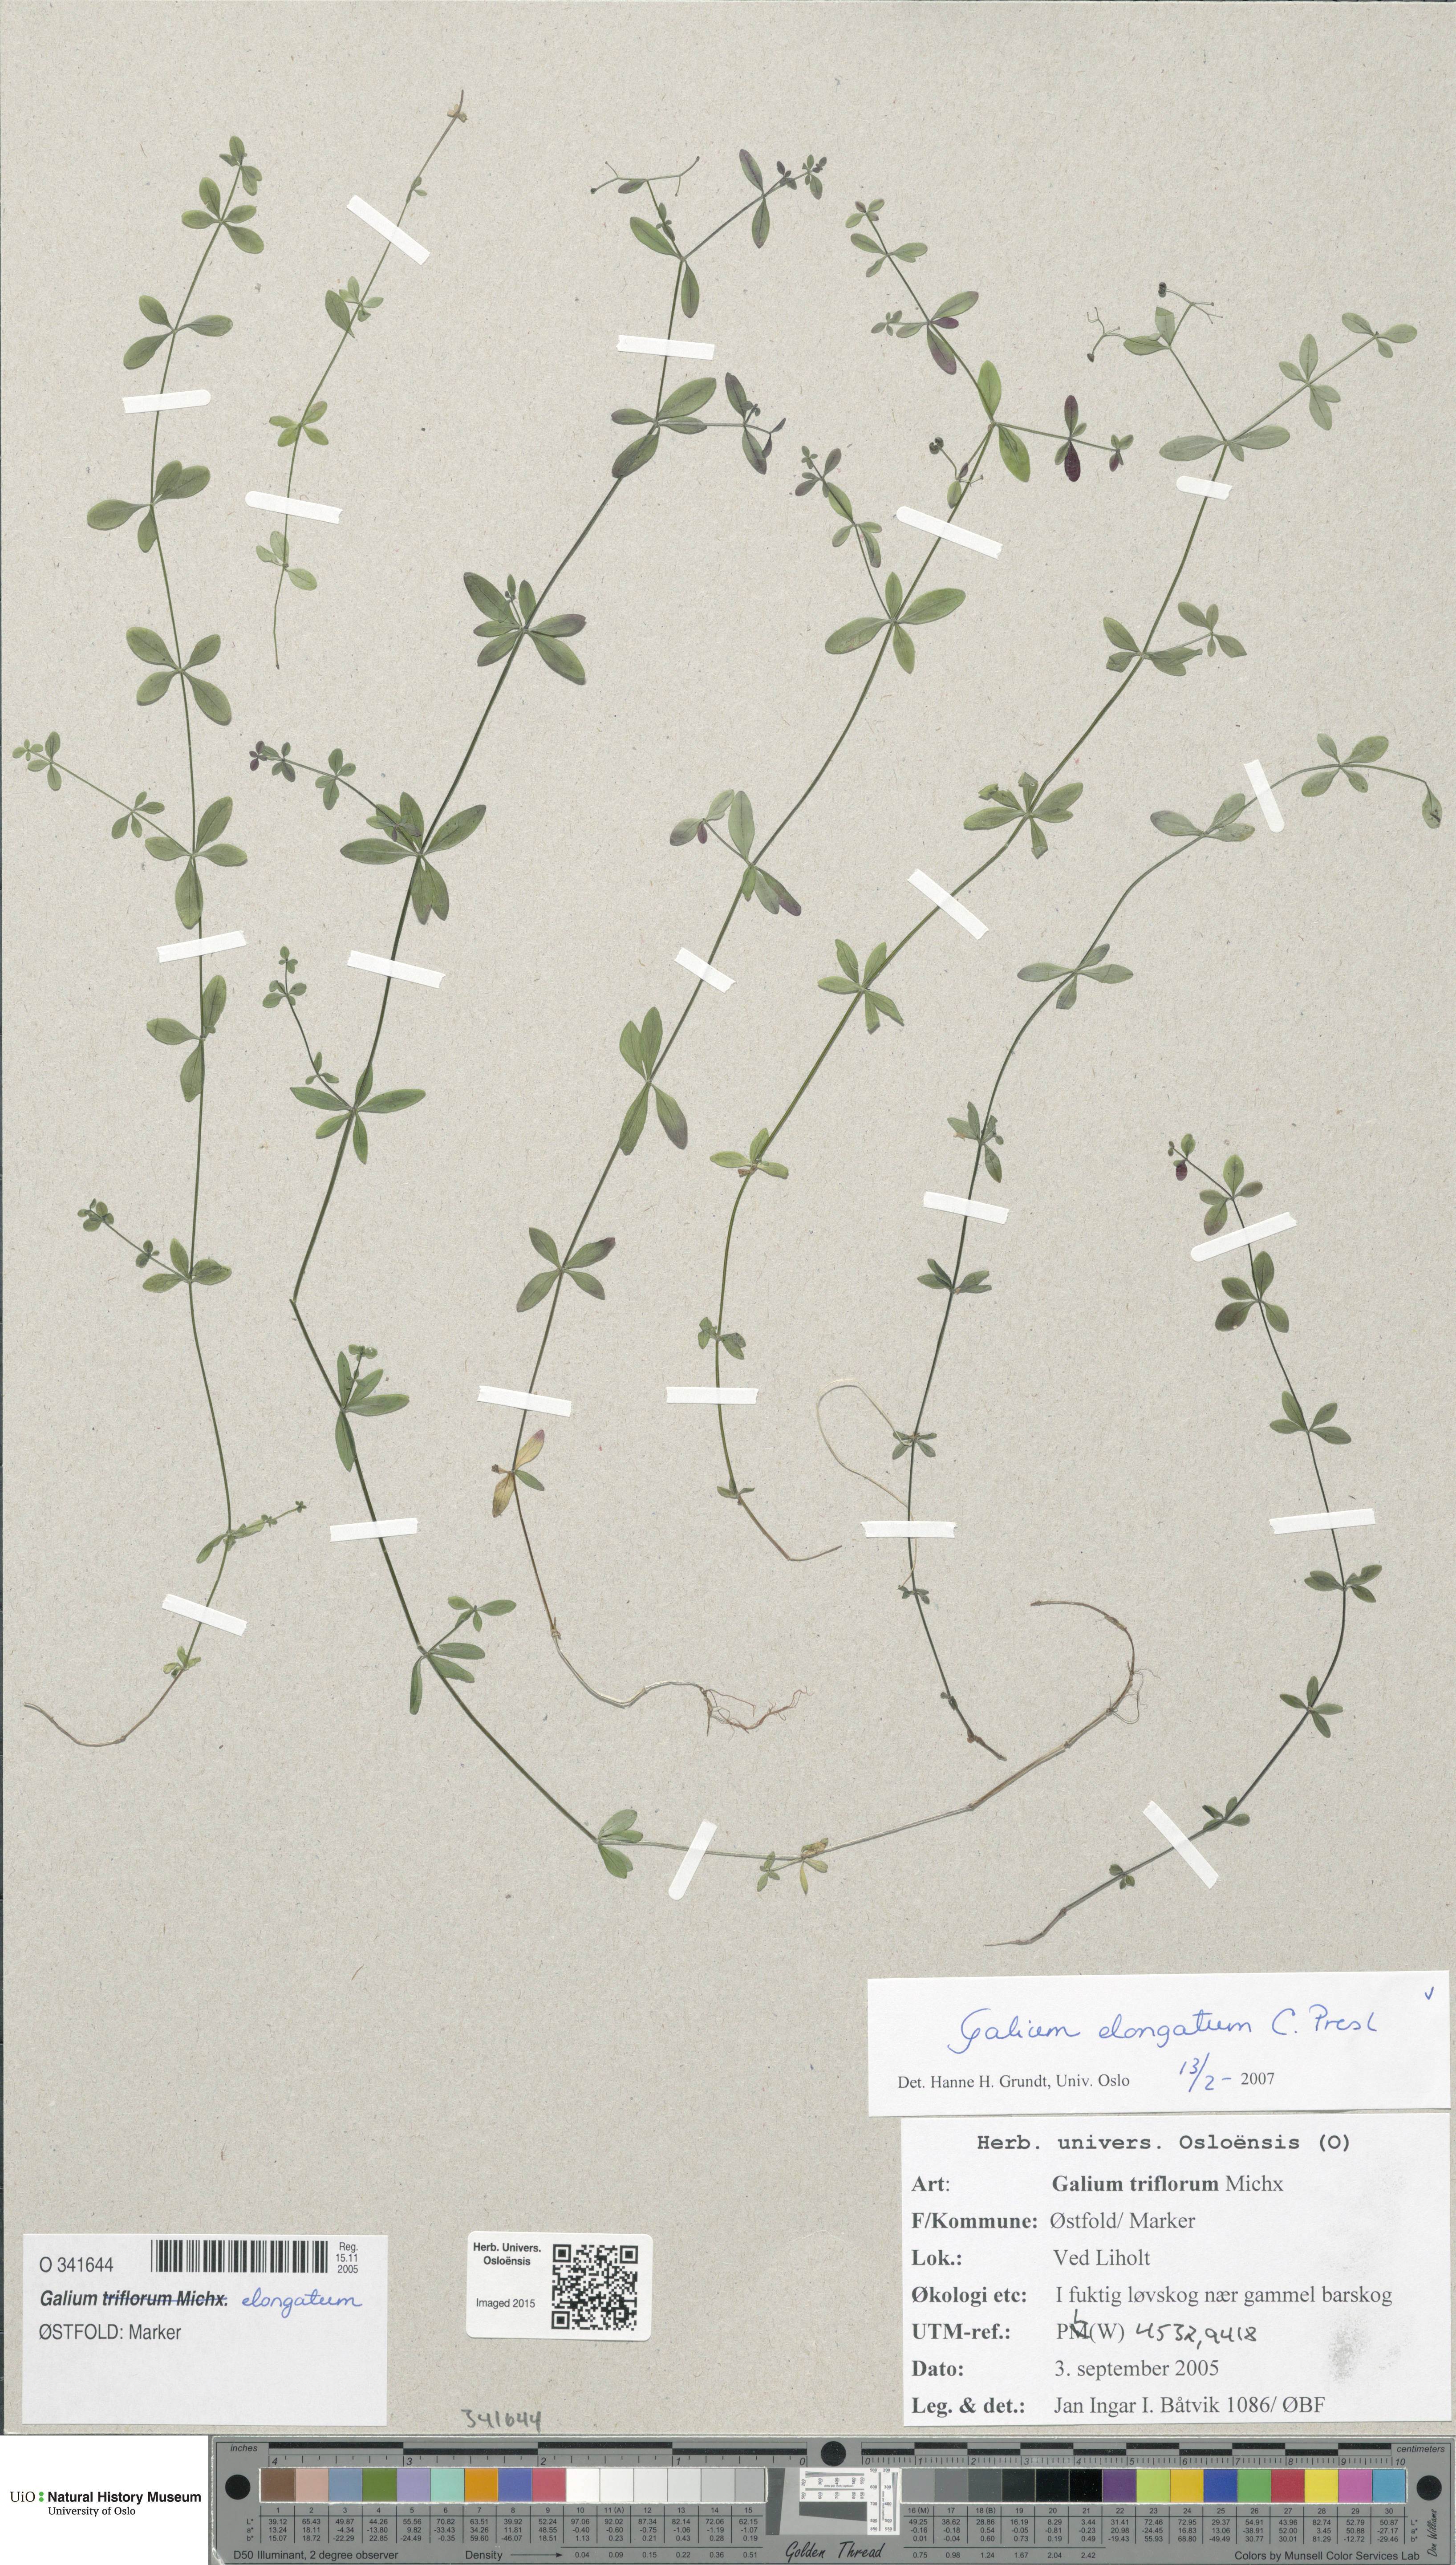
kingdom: Plantae
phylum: Tracheophyta
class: Magnoliopsida
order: Gentianales
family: Rubiaceae
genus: Galium
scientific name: Galium elongatum
